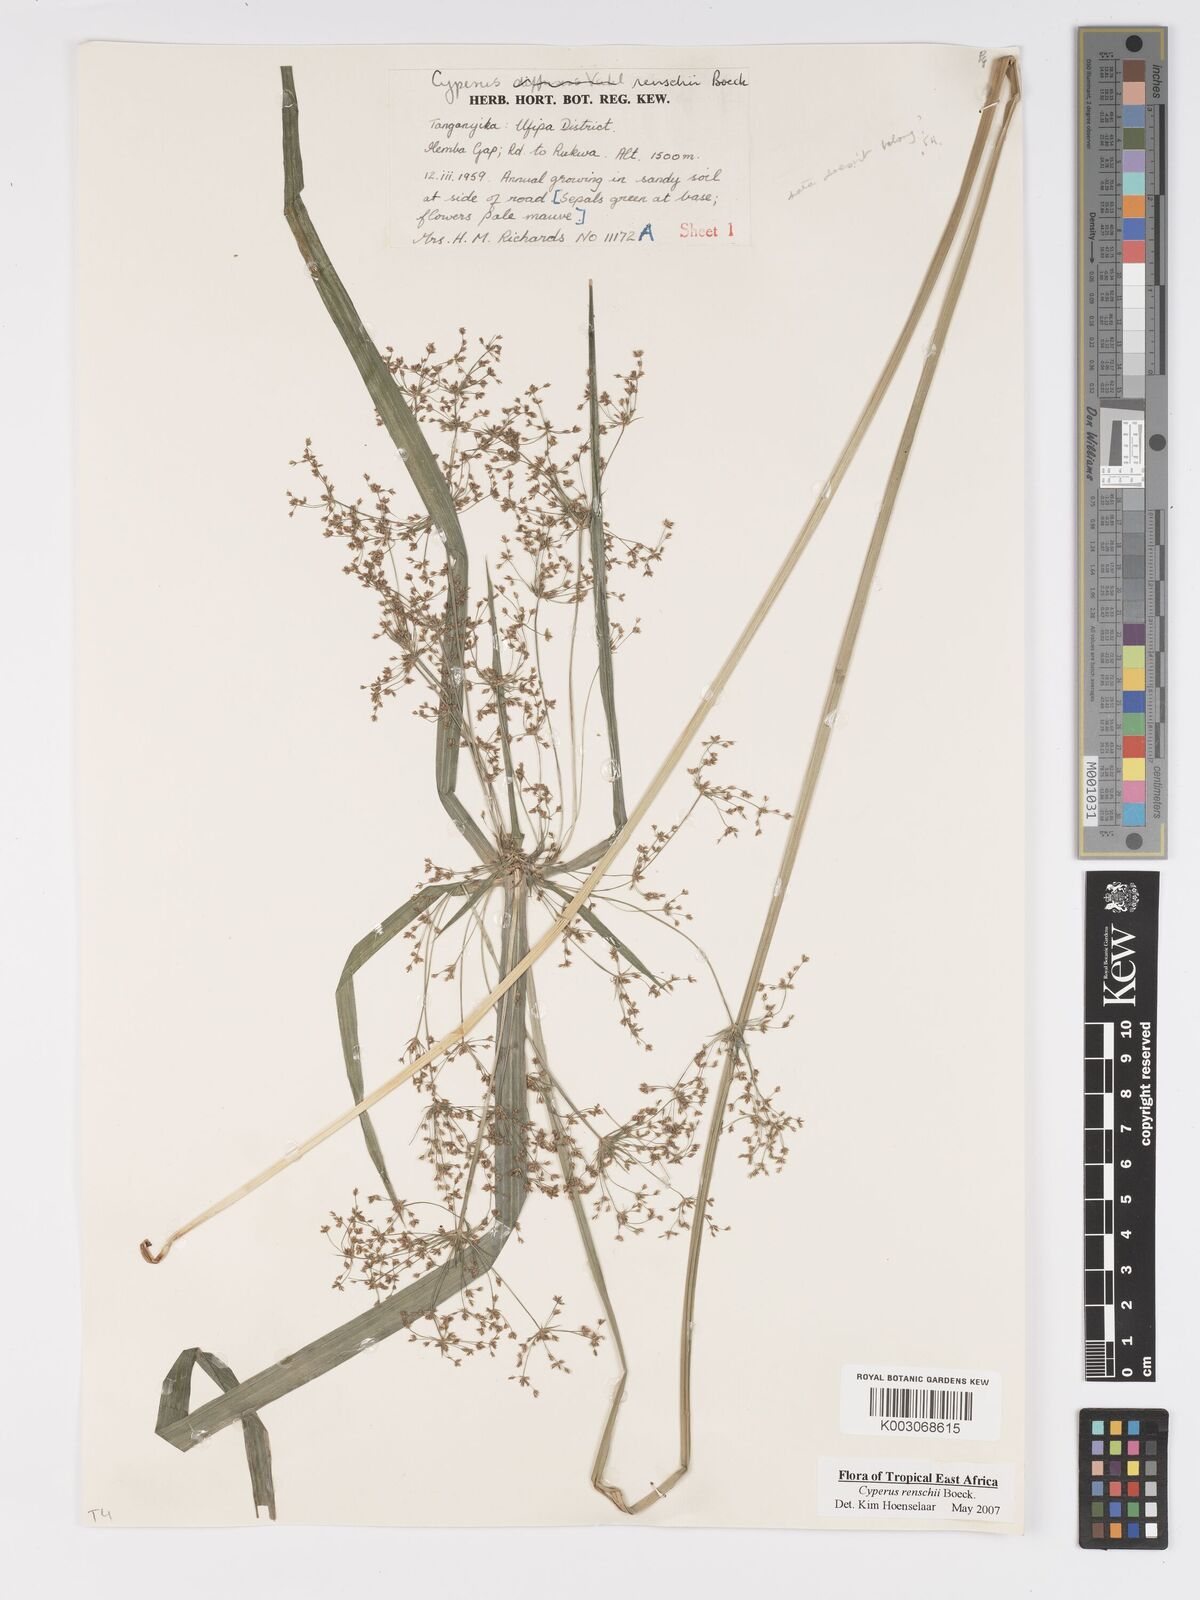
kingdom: Plantae
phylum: Tracheophyta
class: Liliopsida
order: Poales
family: Cyperaceae
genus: Cyperus
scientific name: Cyperus renschii
